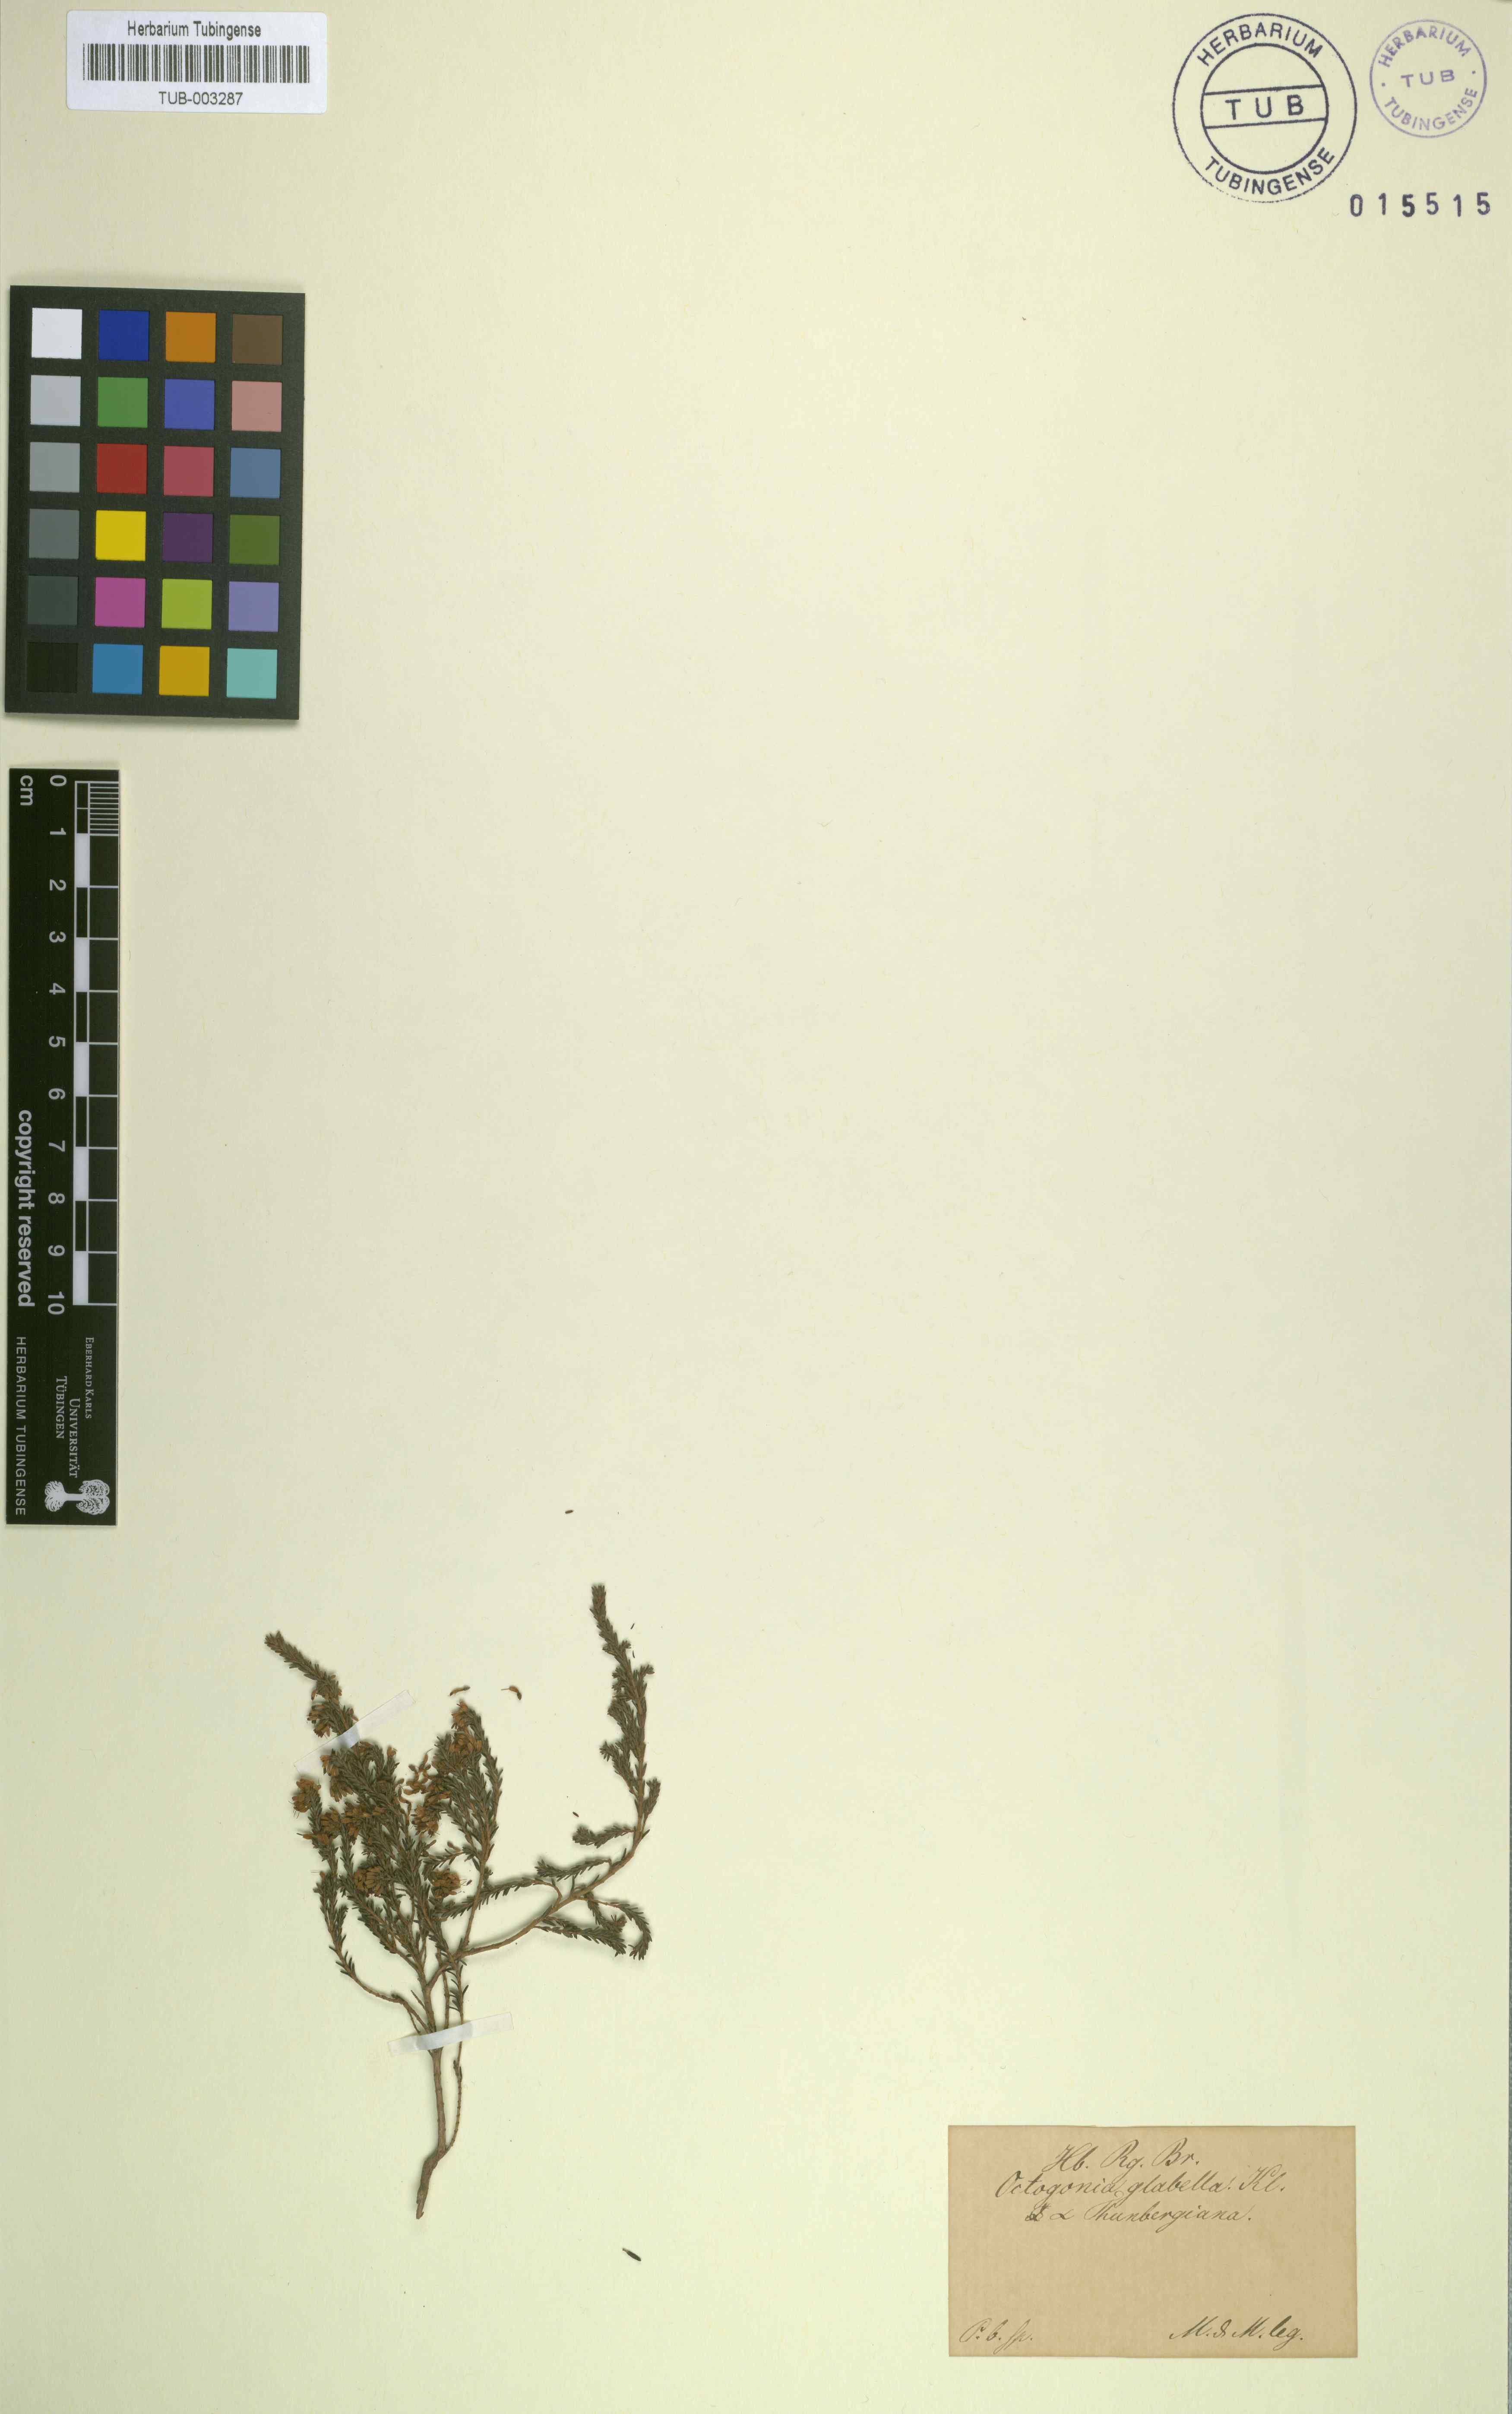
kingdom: Plantae
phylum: Tracheophyta
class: Magnoliopsida
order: Ericales
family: Ericaceae
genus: Erica
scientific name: Erica glabella
